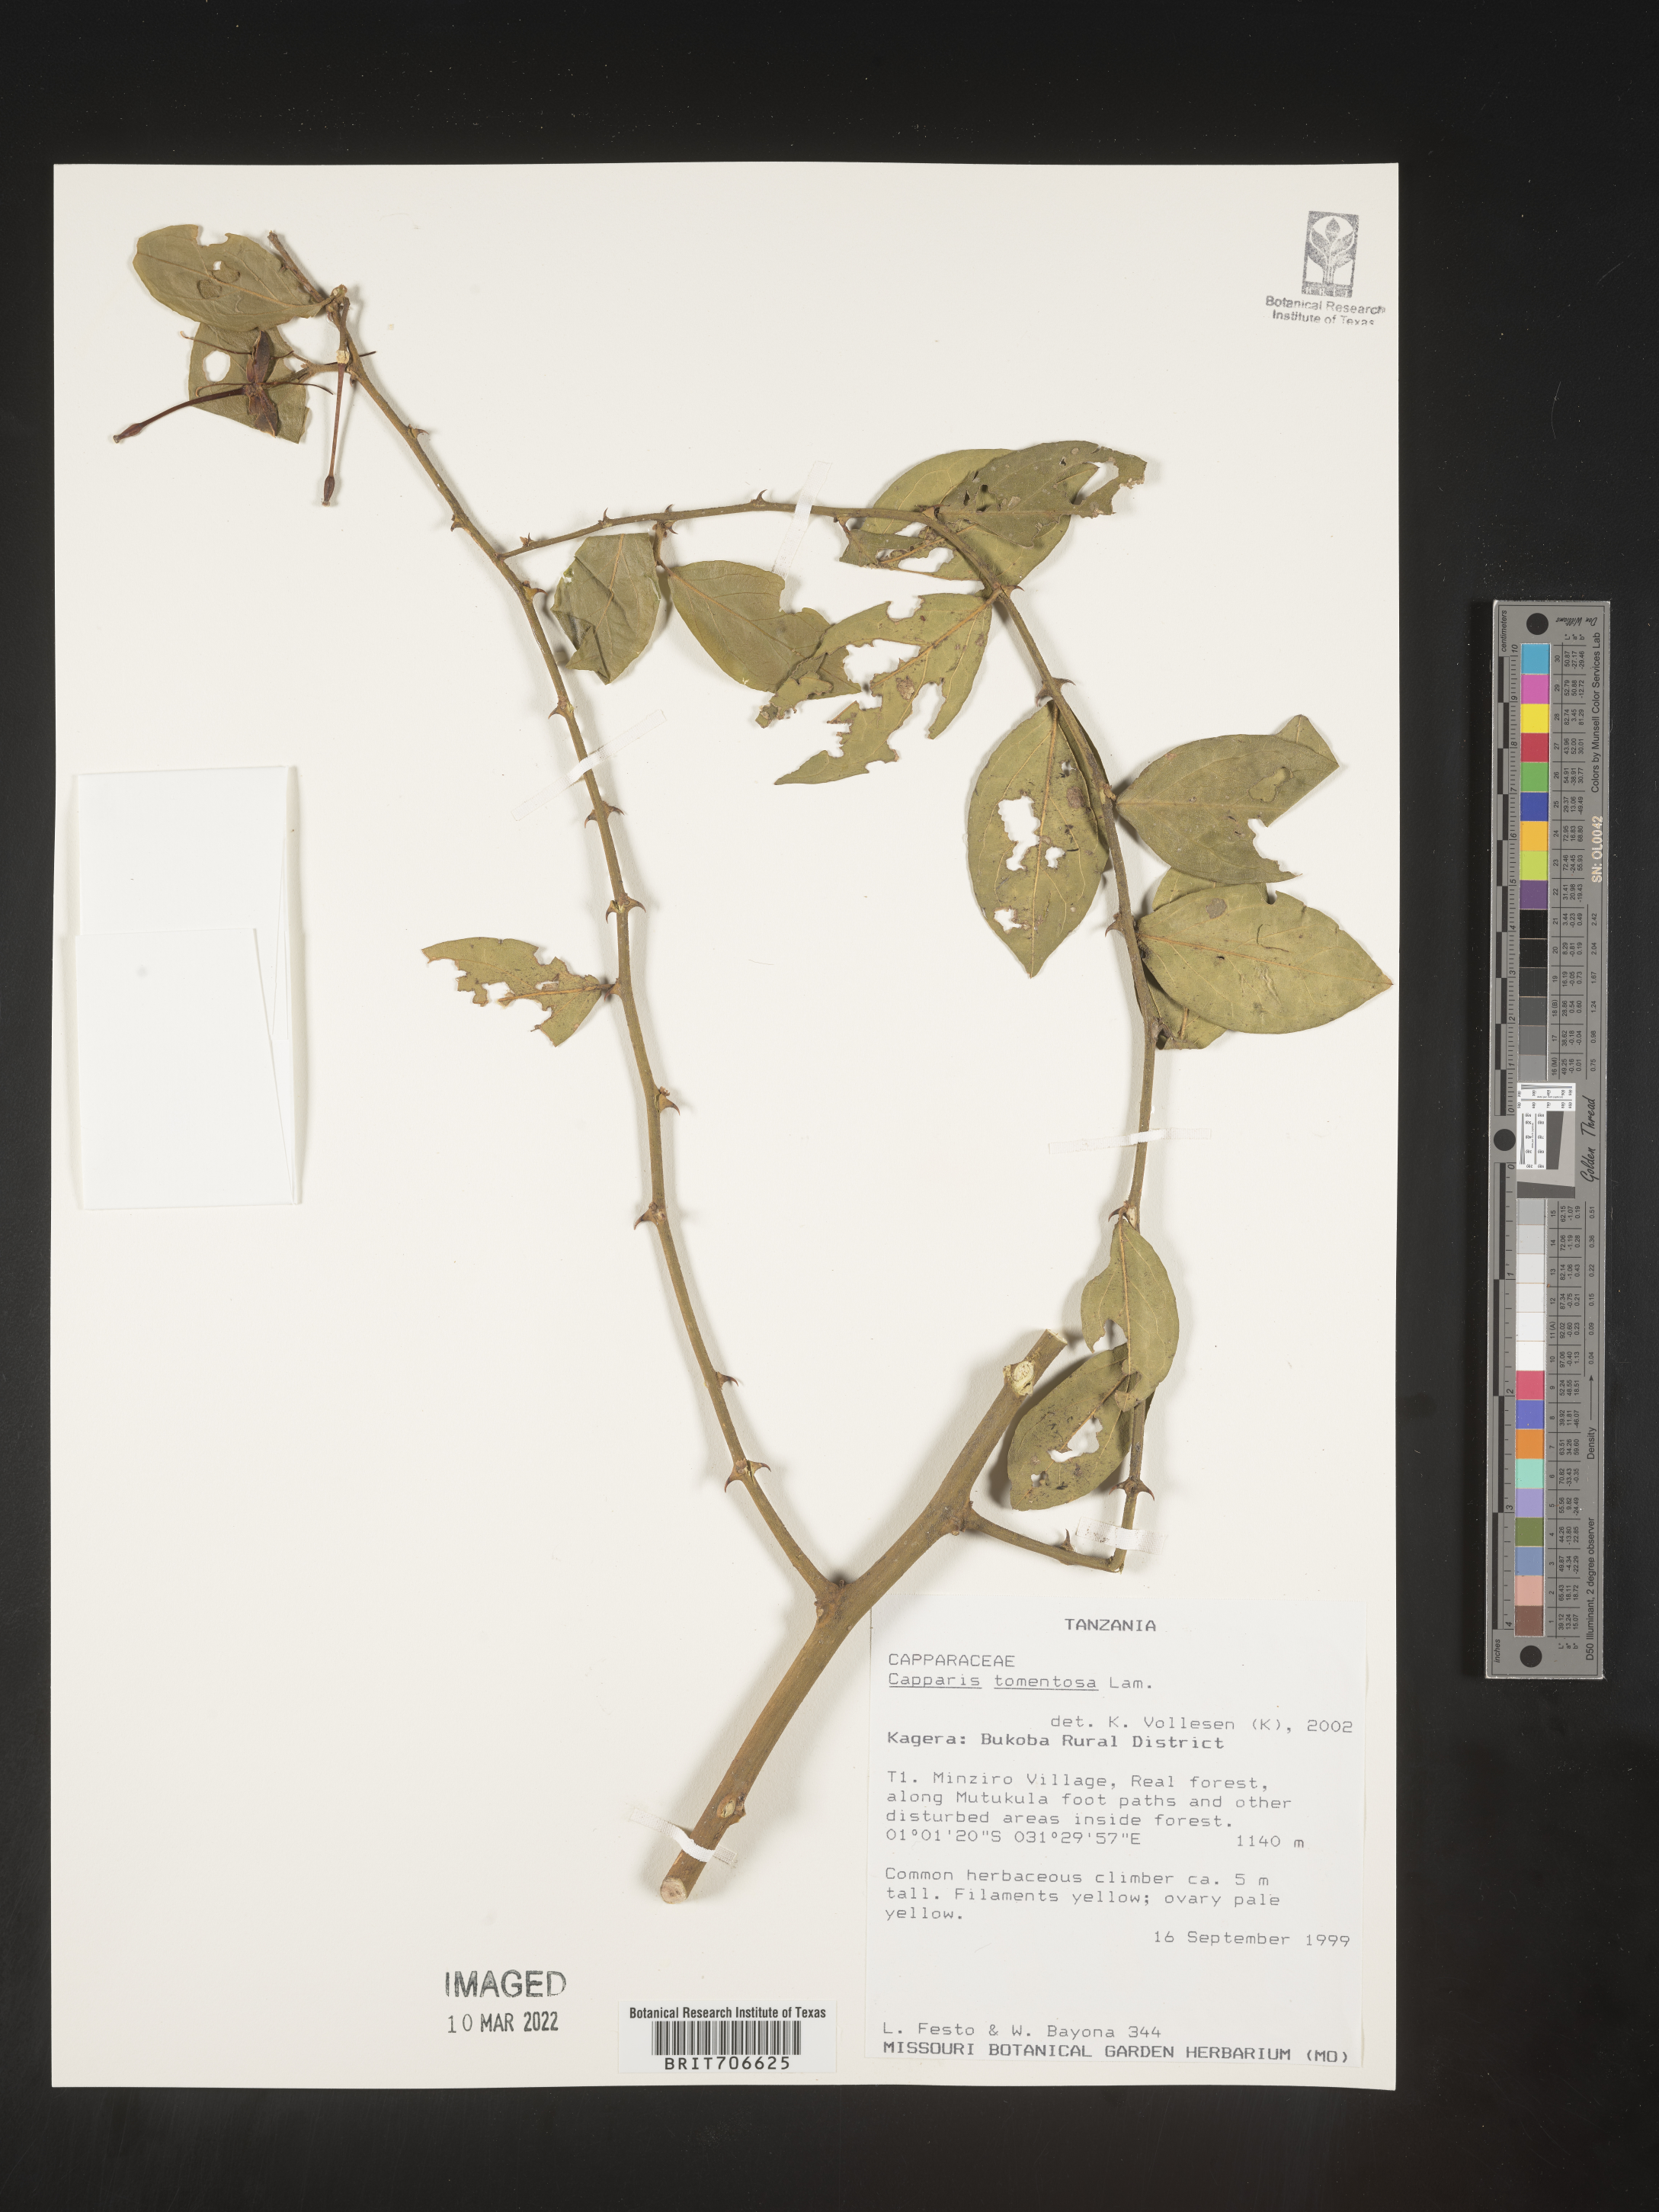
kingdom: Plantae
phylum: Tracheophyta
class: Magnoliopsida
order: Brassicales
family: Capparaceae
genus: Capparis
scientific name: Capparis
